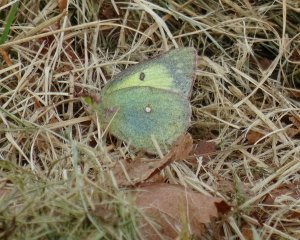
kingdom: Animalia
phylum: Arthropoda
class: Insecta
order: Lepidoptera
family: Pieridae
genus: Colias
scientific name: Colias philodice
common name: Clouded Sulphur
